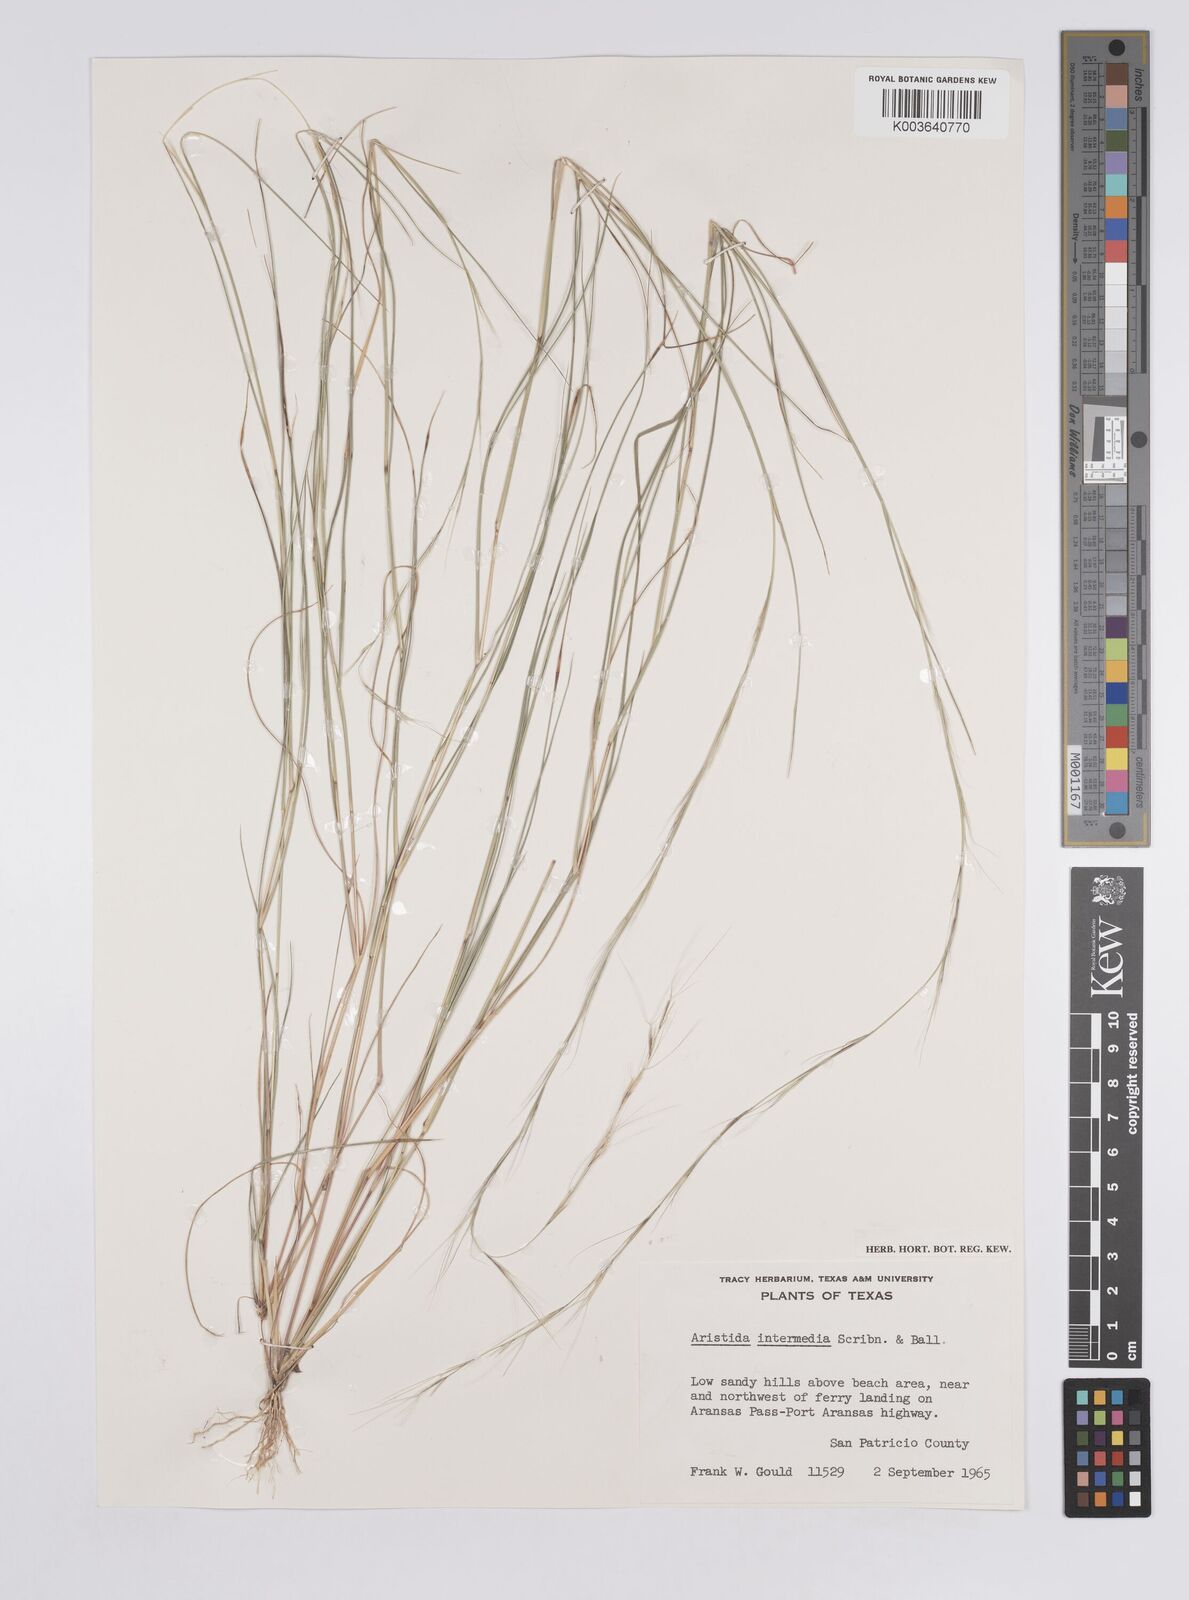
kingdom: Plantae
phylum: Tracheophyta
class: Liliopsida
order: Poales
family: Poaceae
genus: Aristida
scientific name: Aristida adscensionis
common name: Sixweeks threeawn
